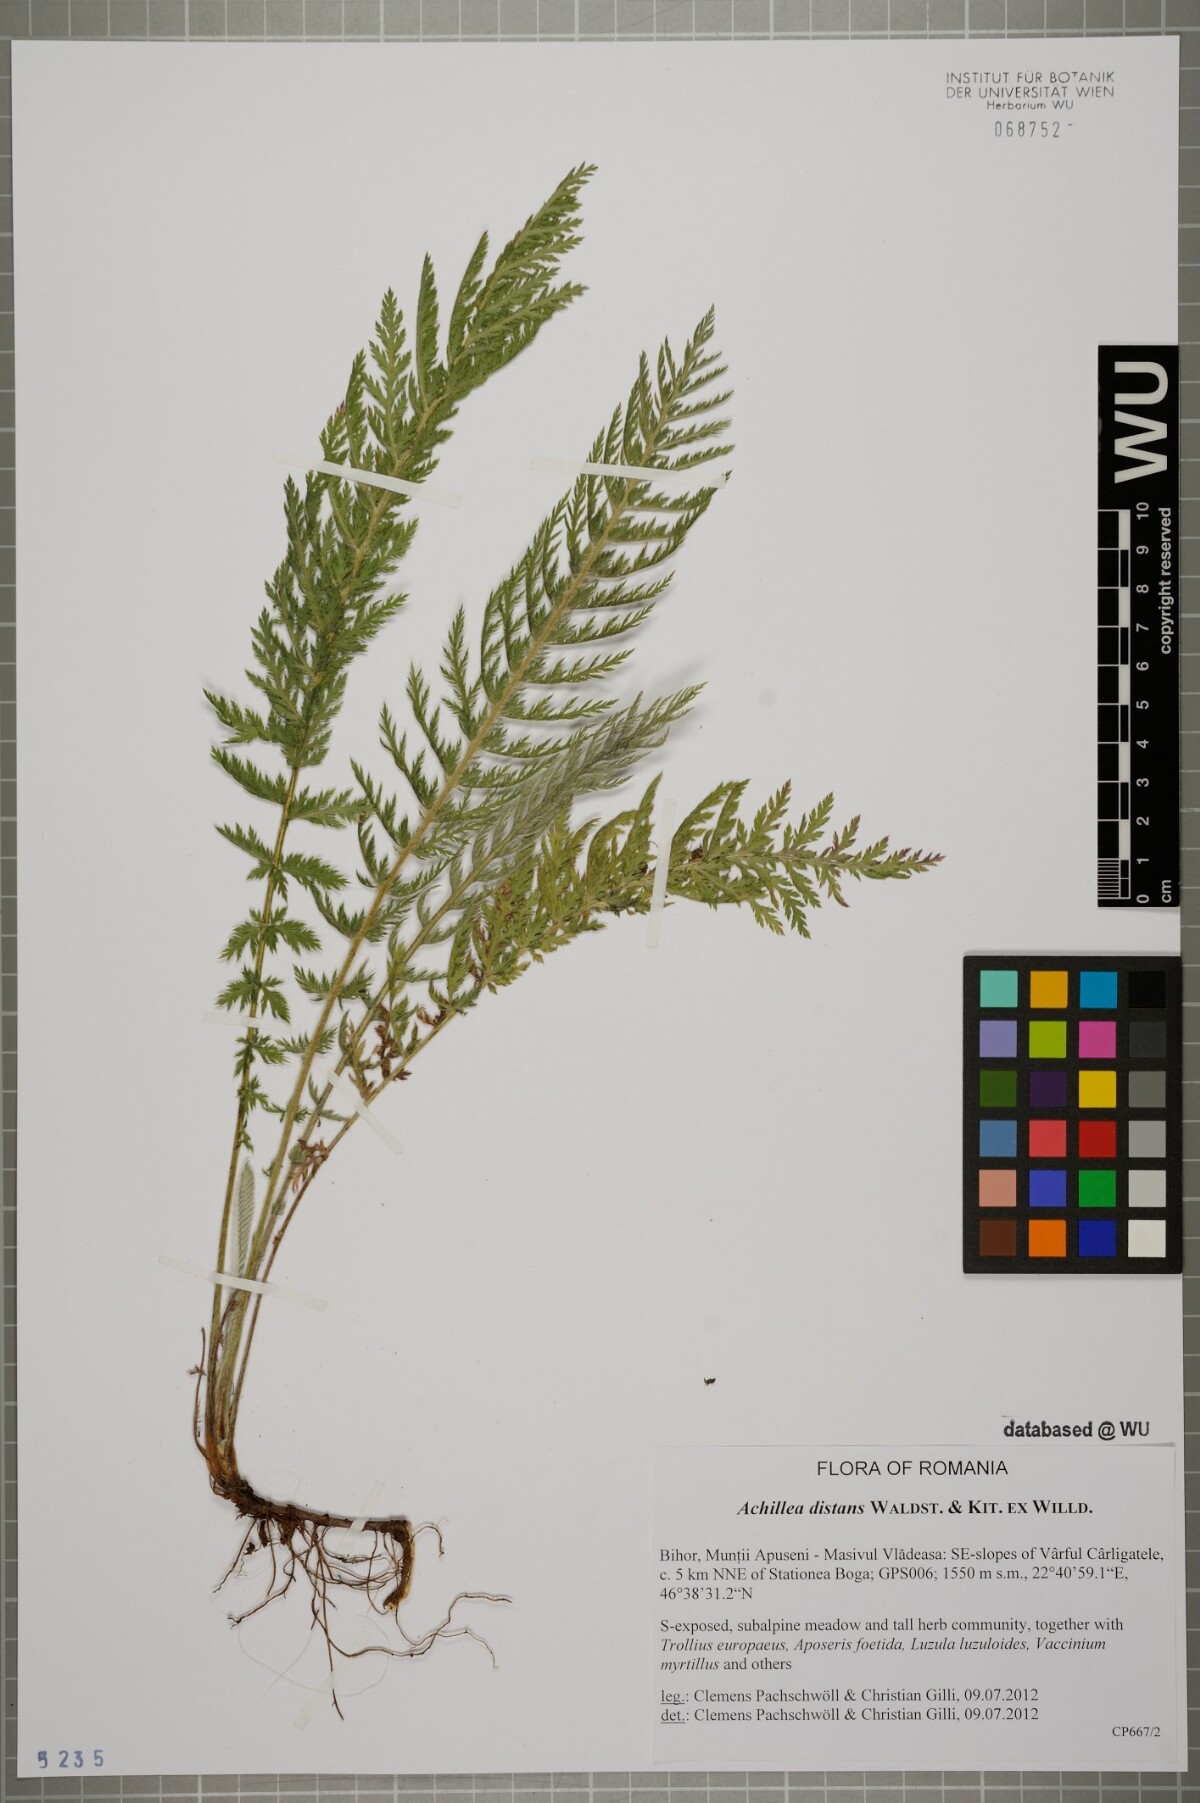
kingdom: Plantae
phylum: Tracheophyta
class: Magnoliopsida
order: Asterales
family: Asteraceae
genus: Achillea
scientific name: Achillea distans
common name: Tall yarrow
